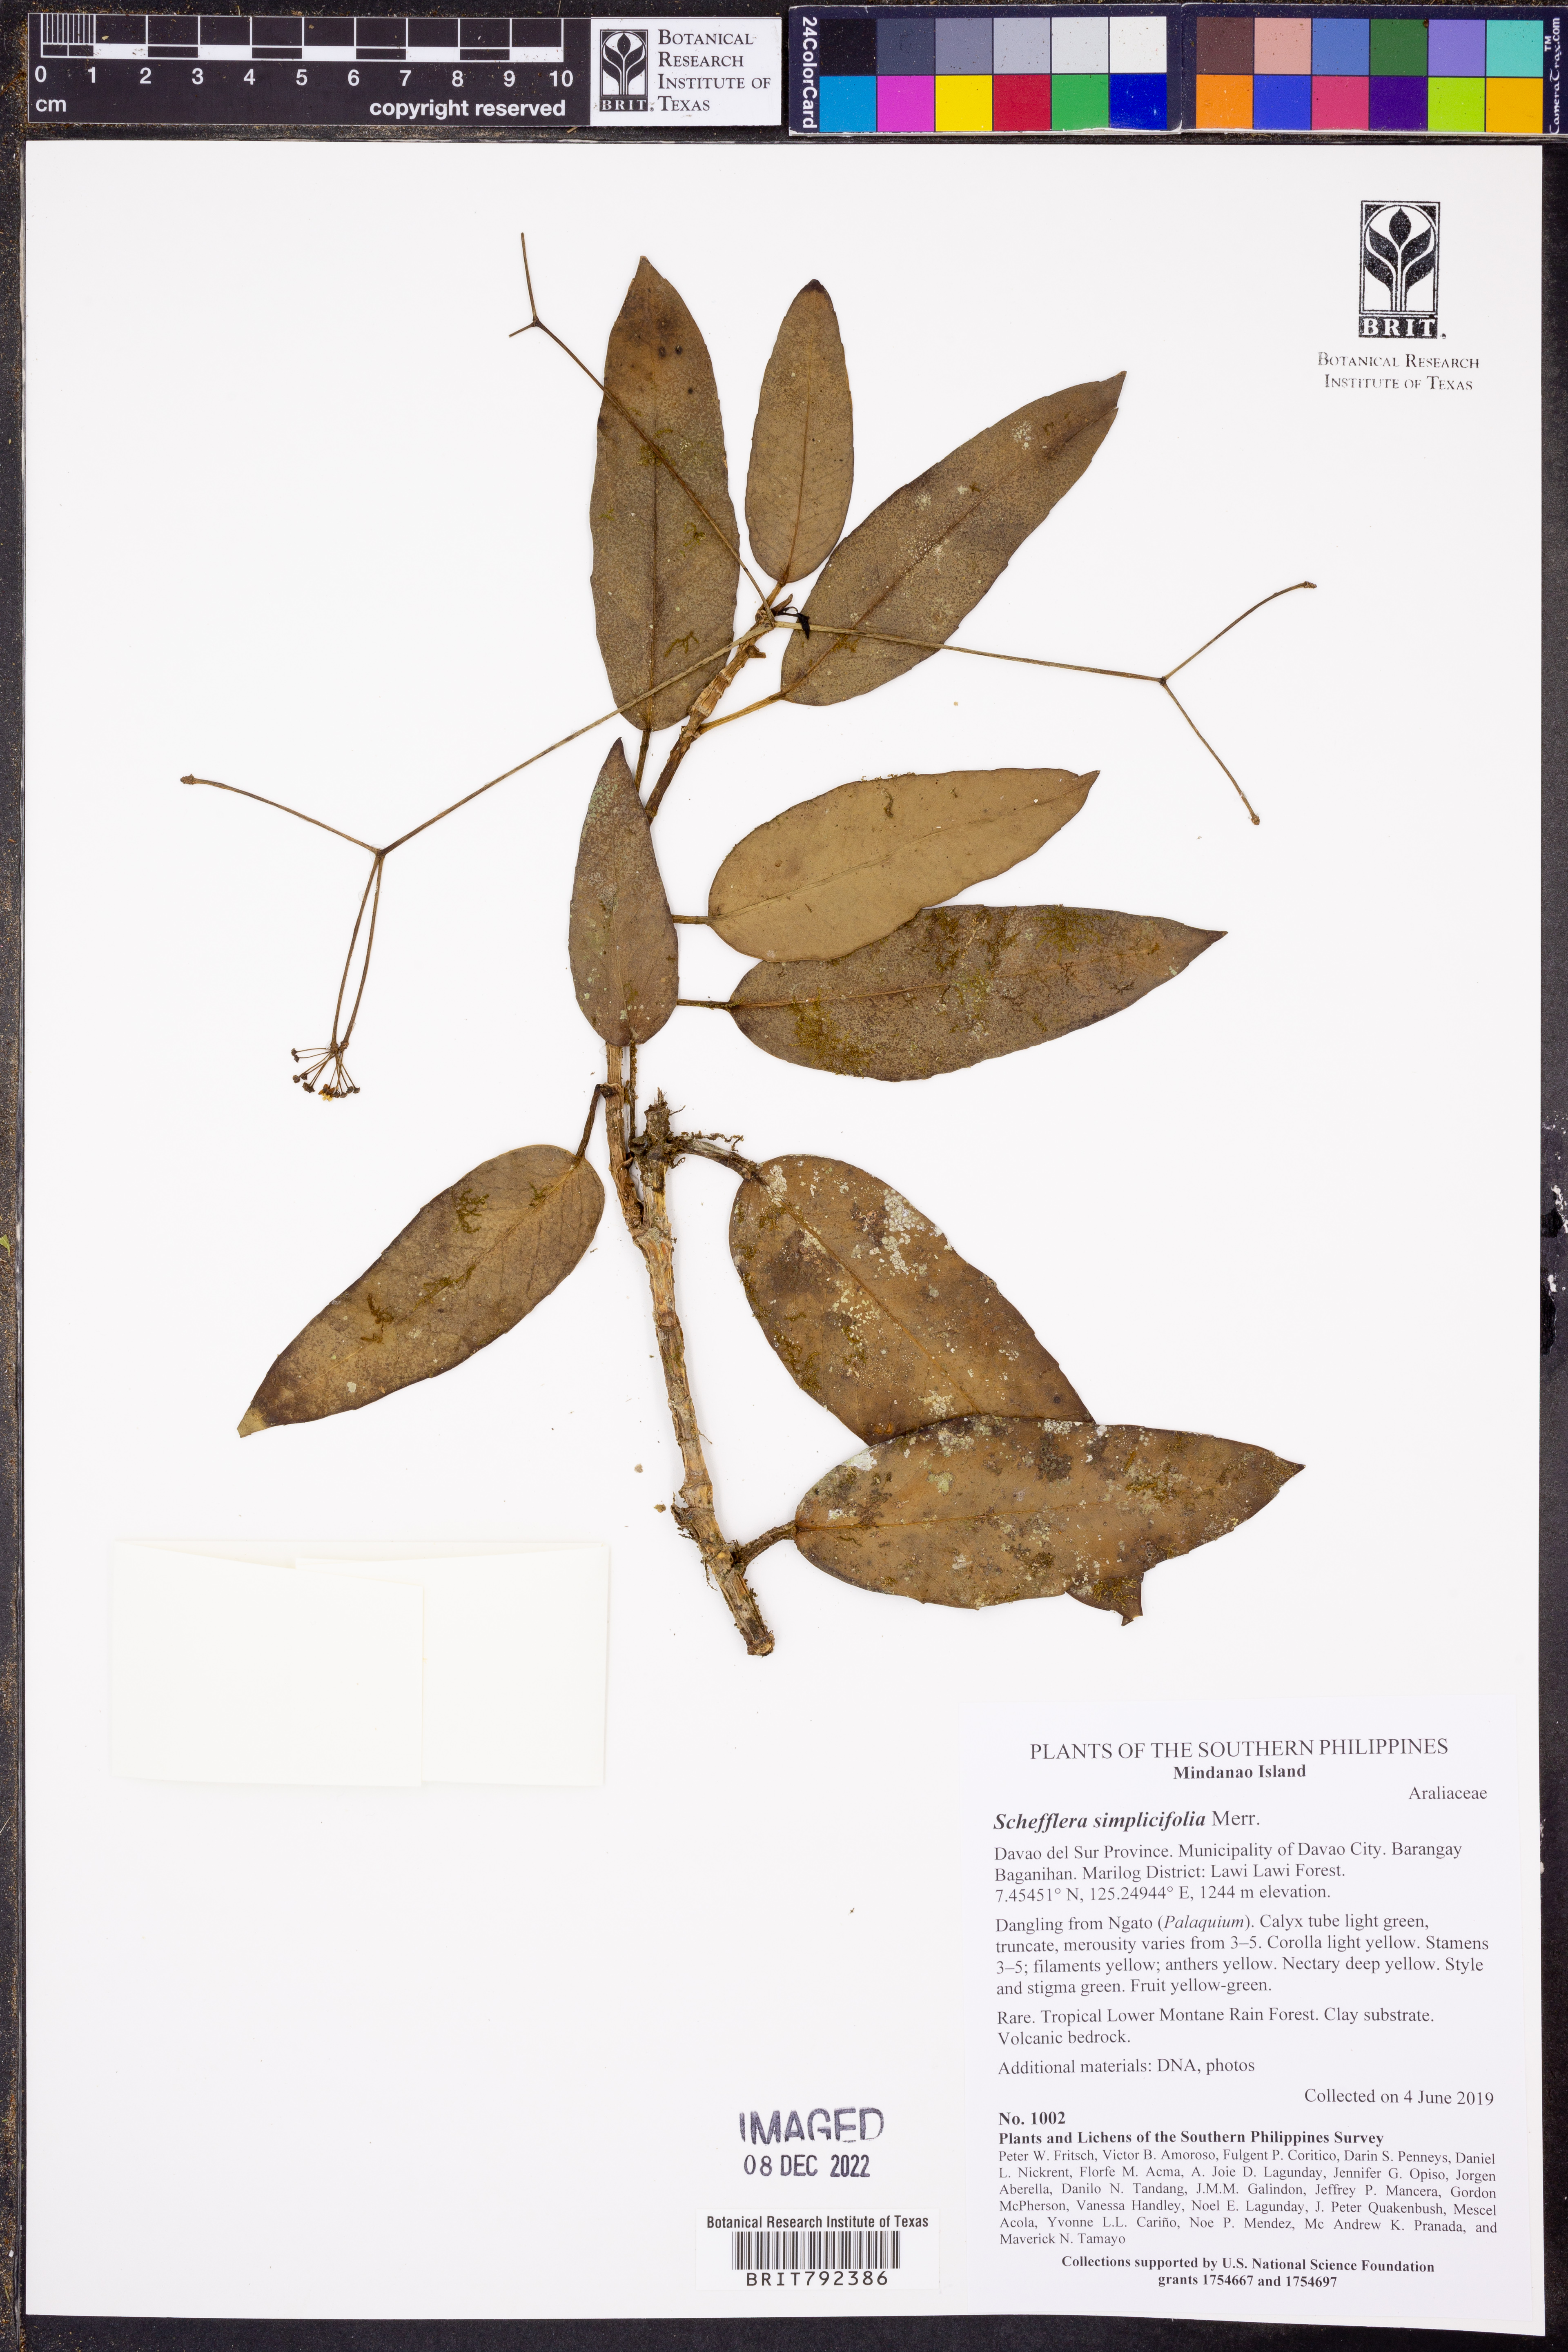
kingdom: Plantae
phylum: Tracheophyta
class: Magnoliopsida
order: Apiales
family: Araliaceae
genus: Heptapleurum
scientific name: Heptapleurum simplicifolium
